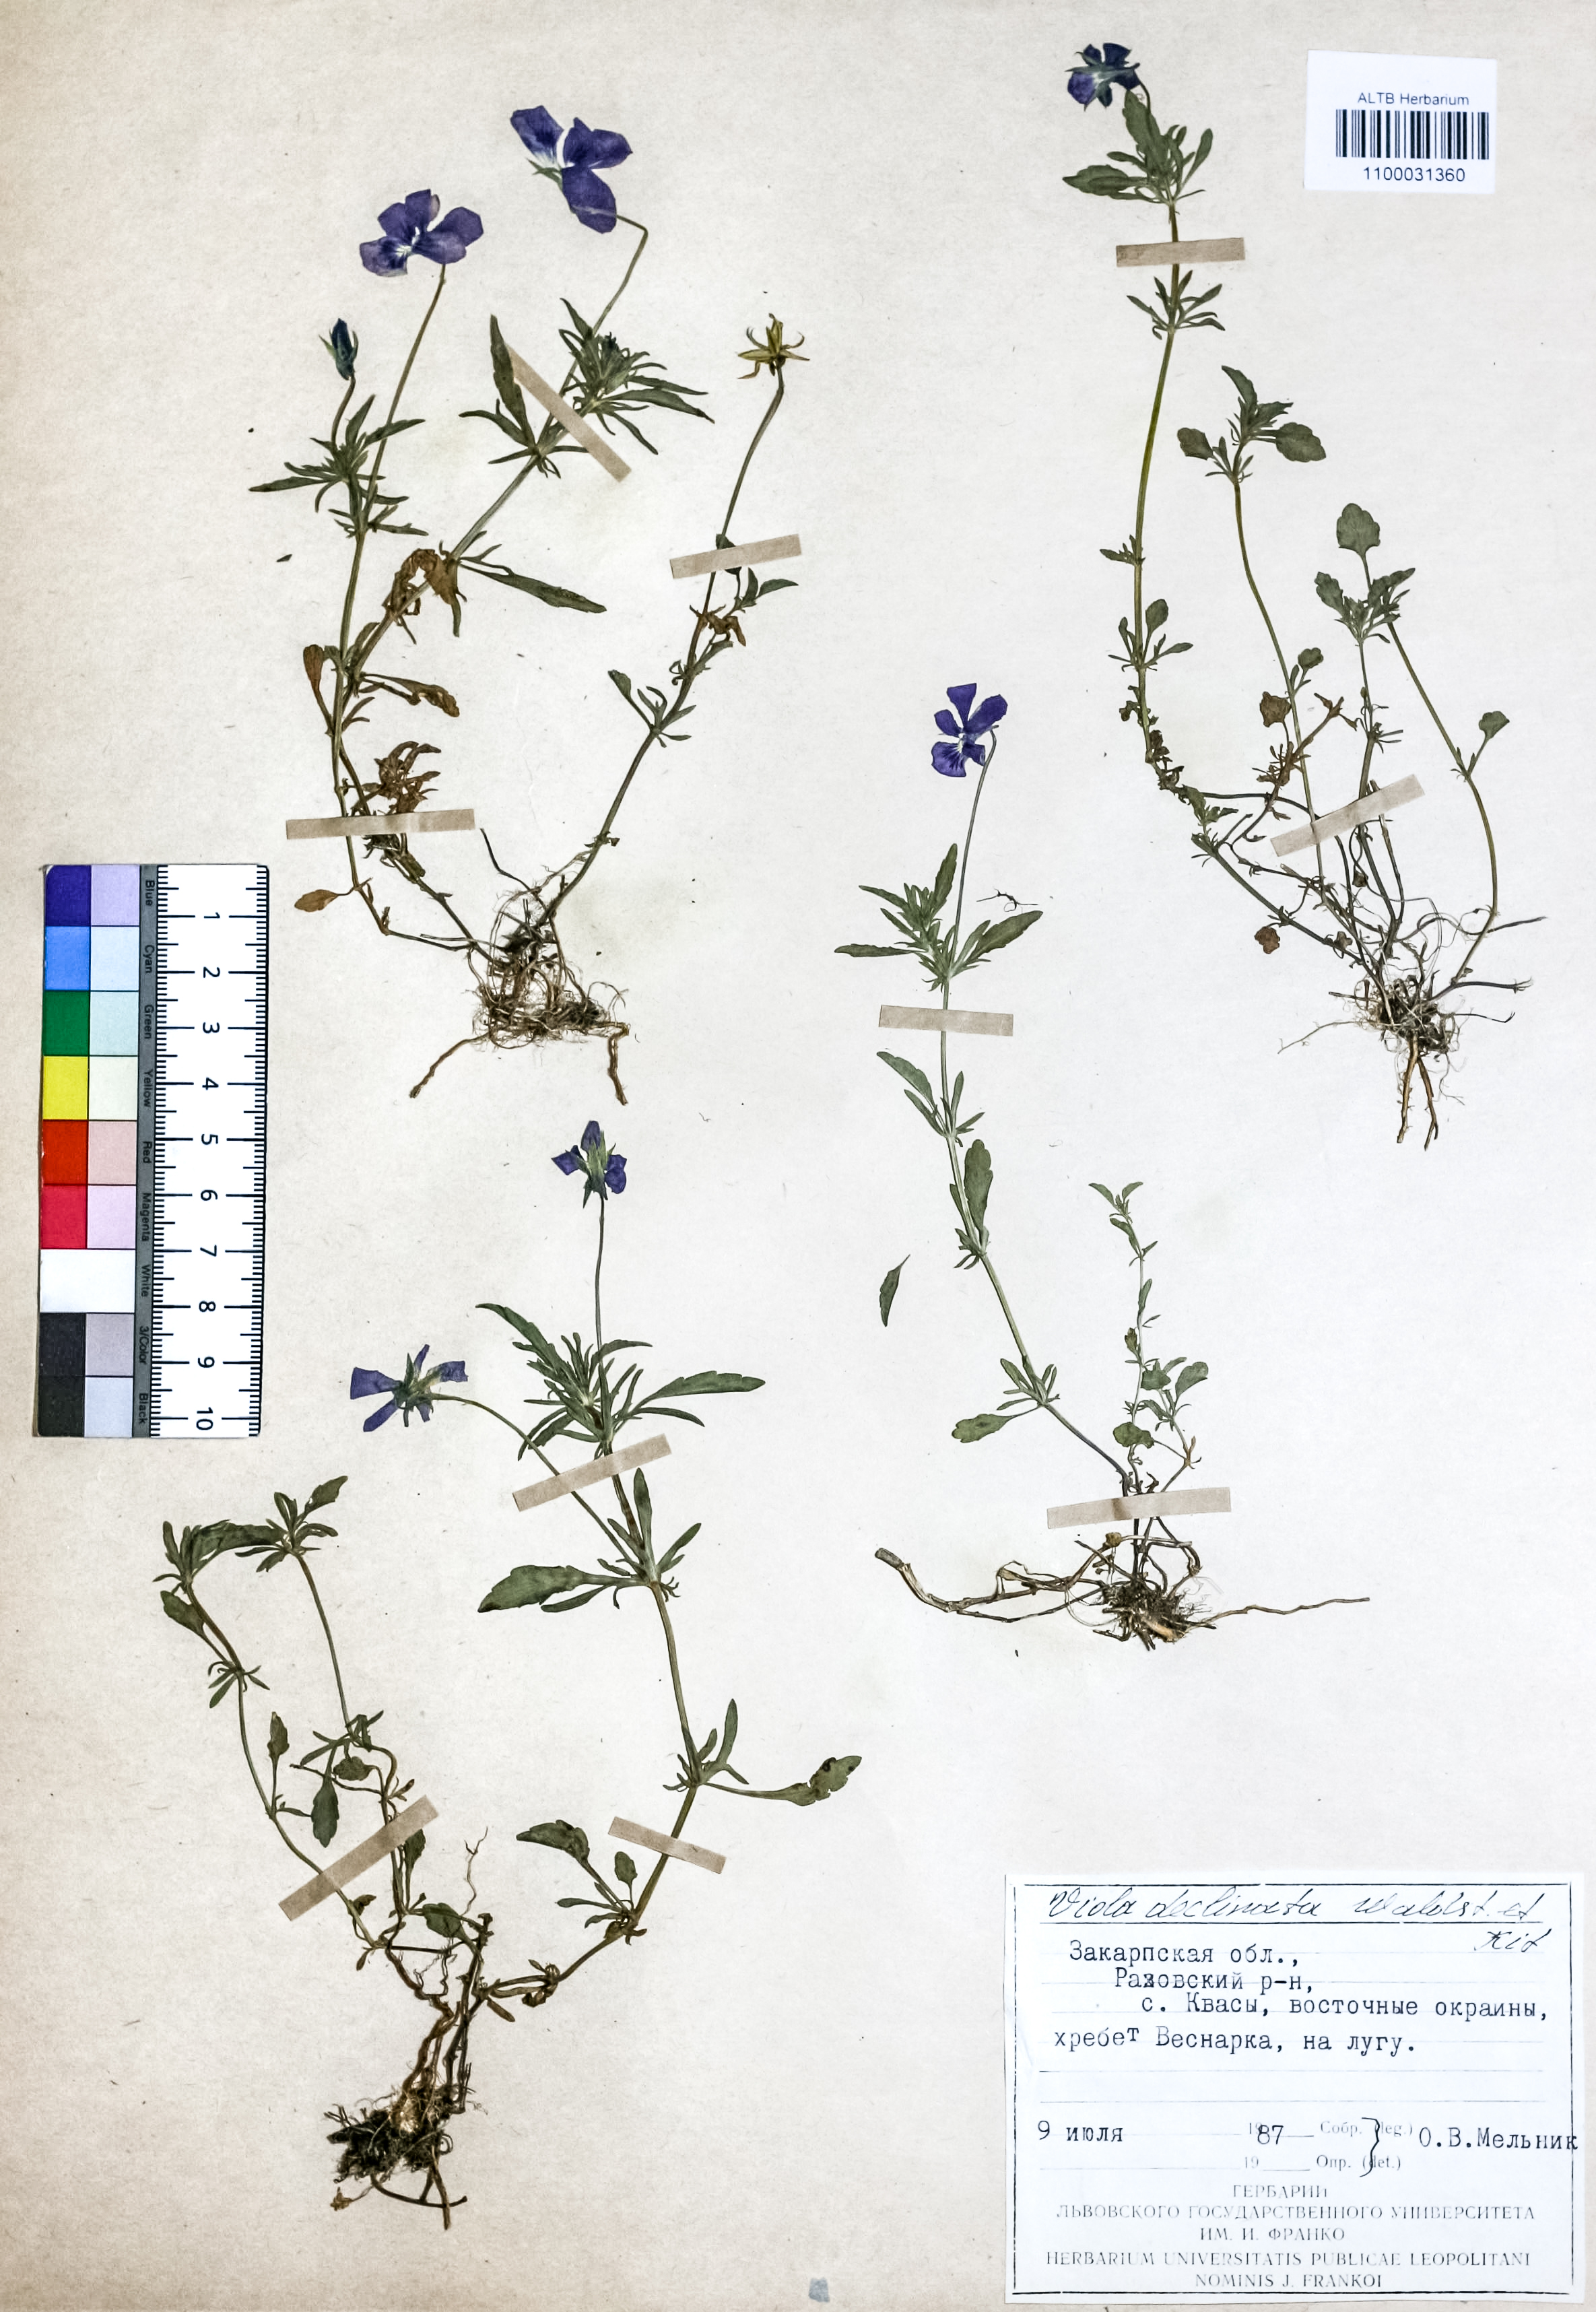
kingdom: Plantae
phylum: Tracheophyta
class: Magnoliopsida
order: Malpighiales
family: Violaceae
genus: Viola
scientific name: Viola declinata
